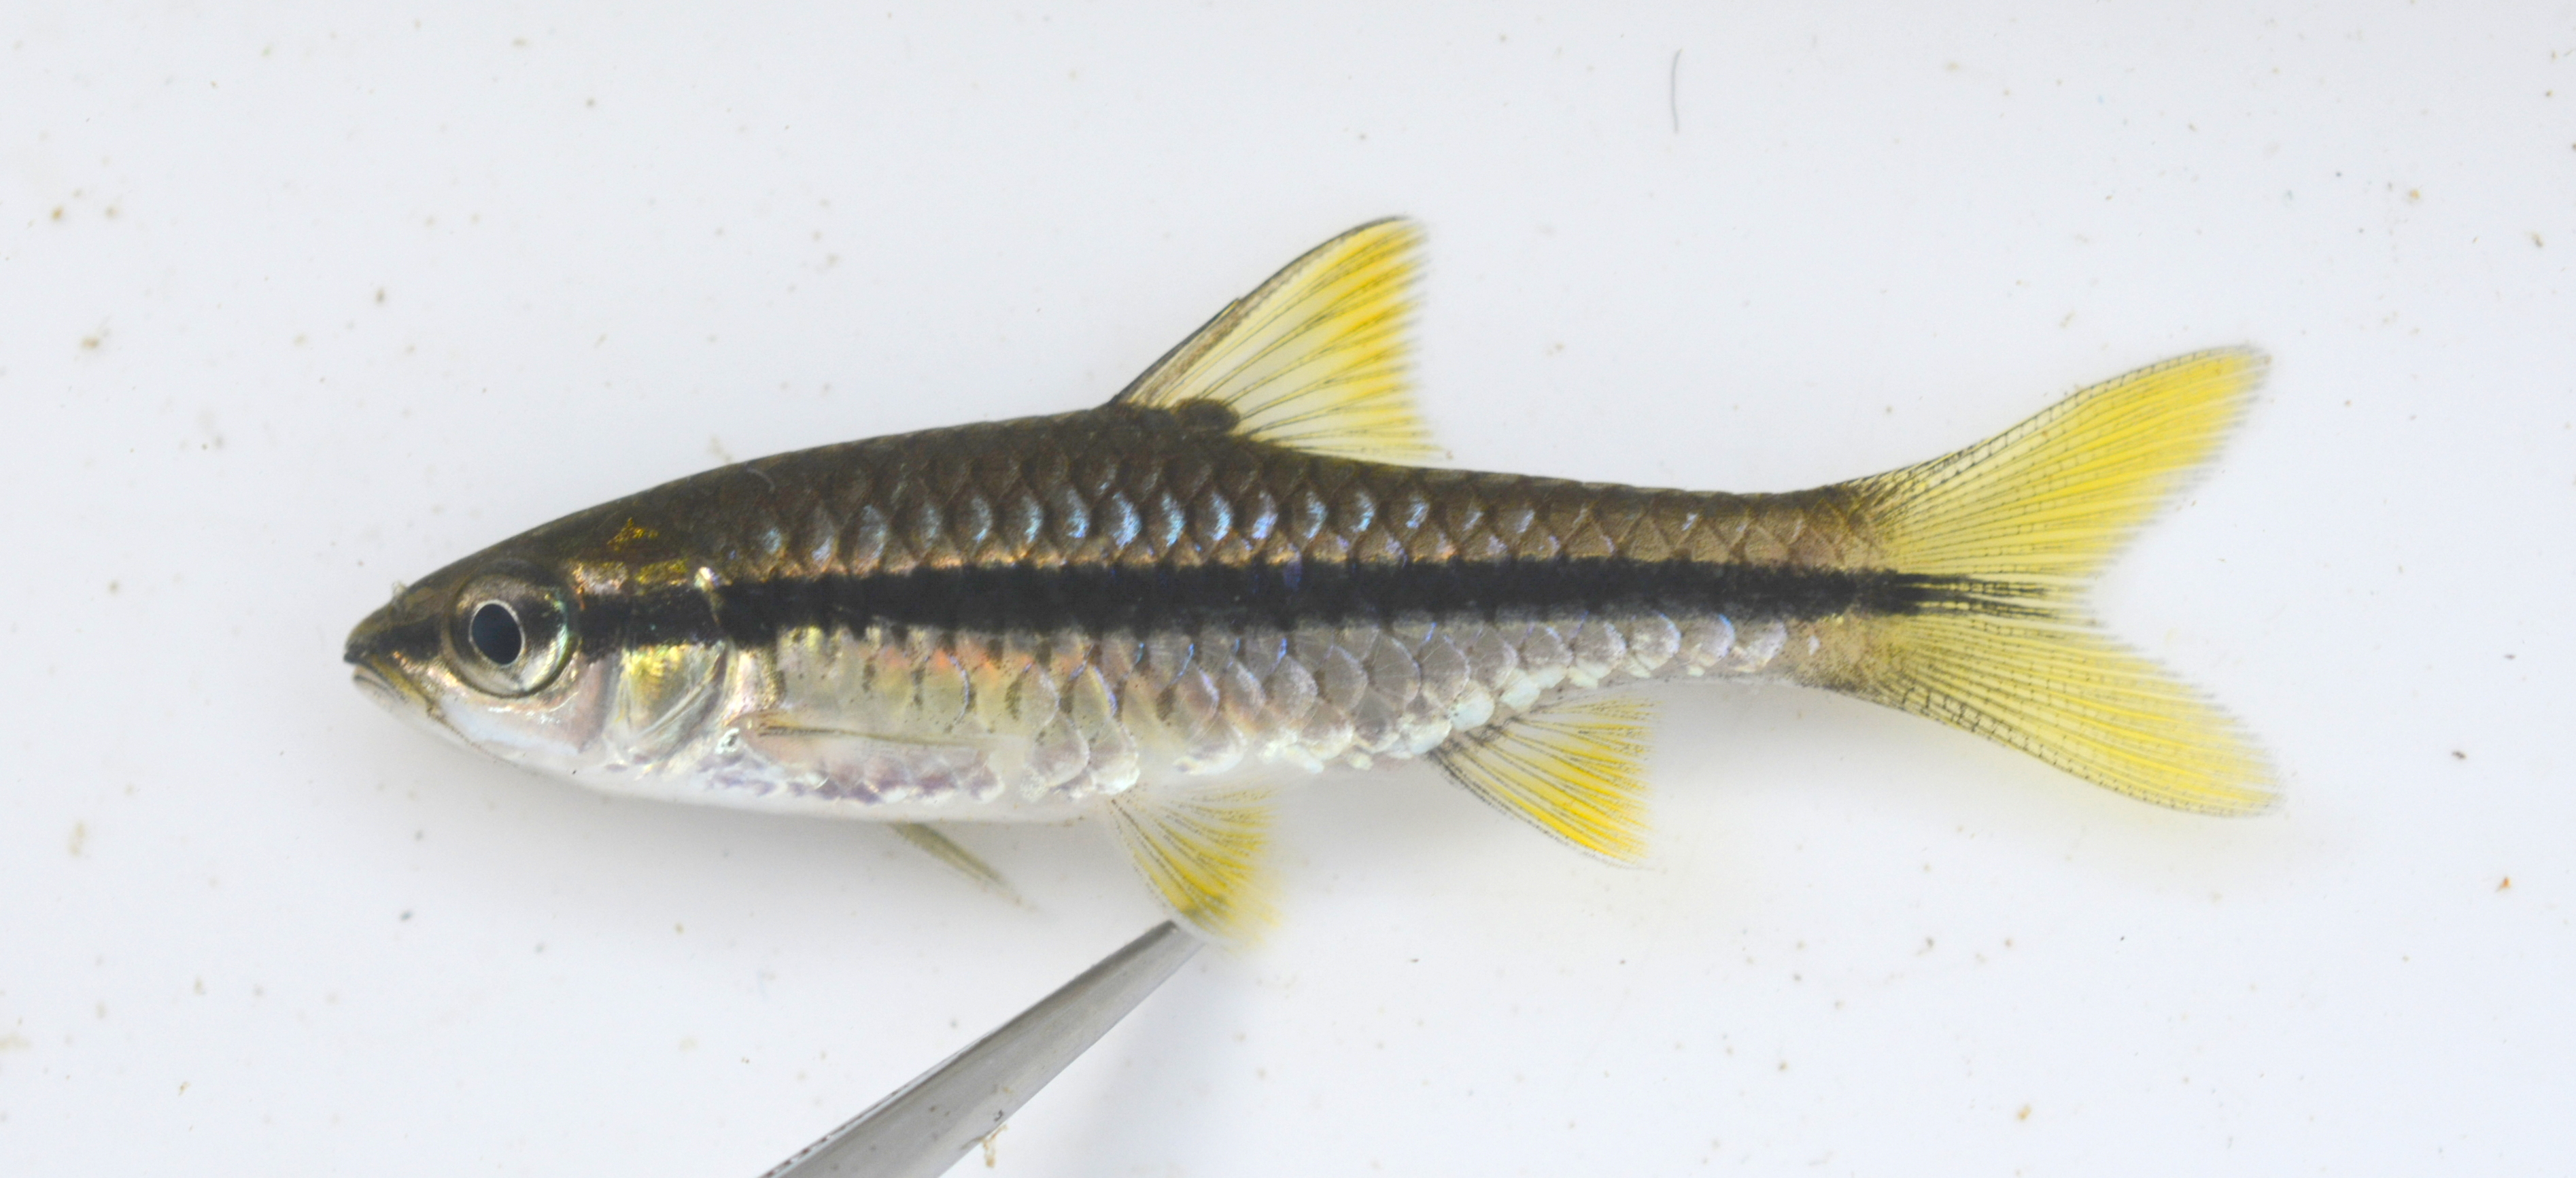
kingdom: Animalia
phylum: Chordata
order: Cypriniformes
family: Cyprinidae
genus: Enteromius
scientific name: Enteromius eutaenia
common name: Orangefin barb
